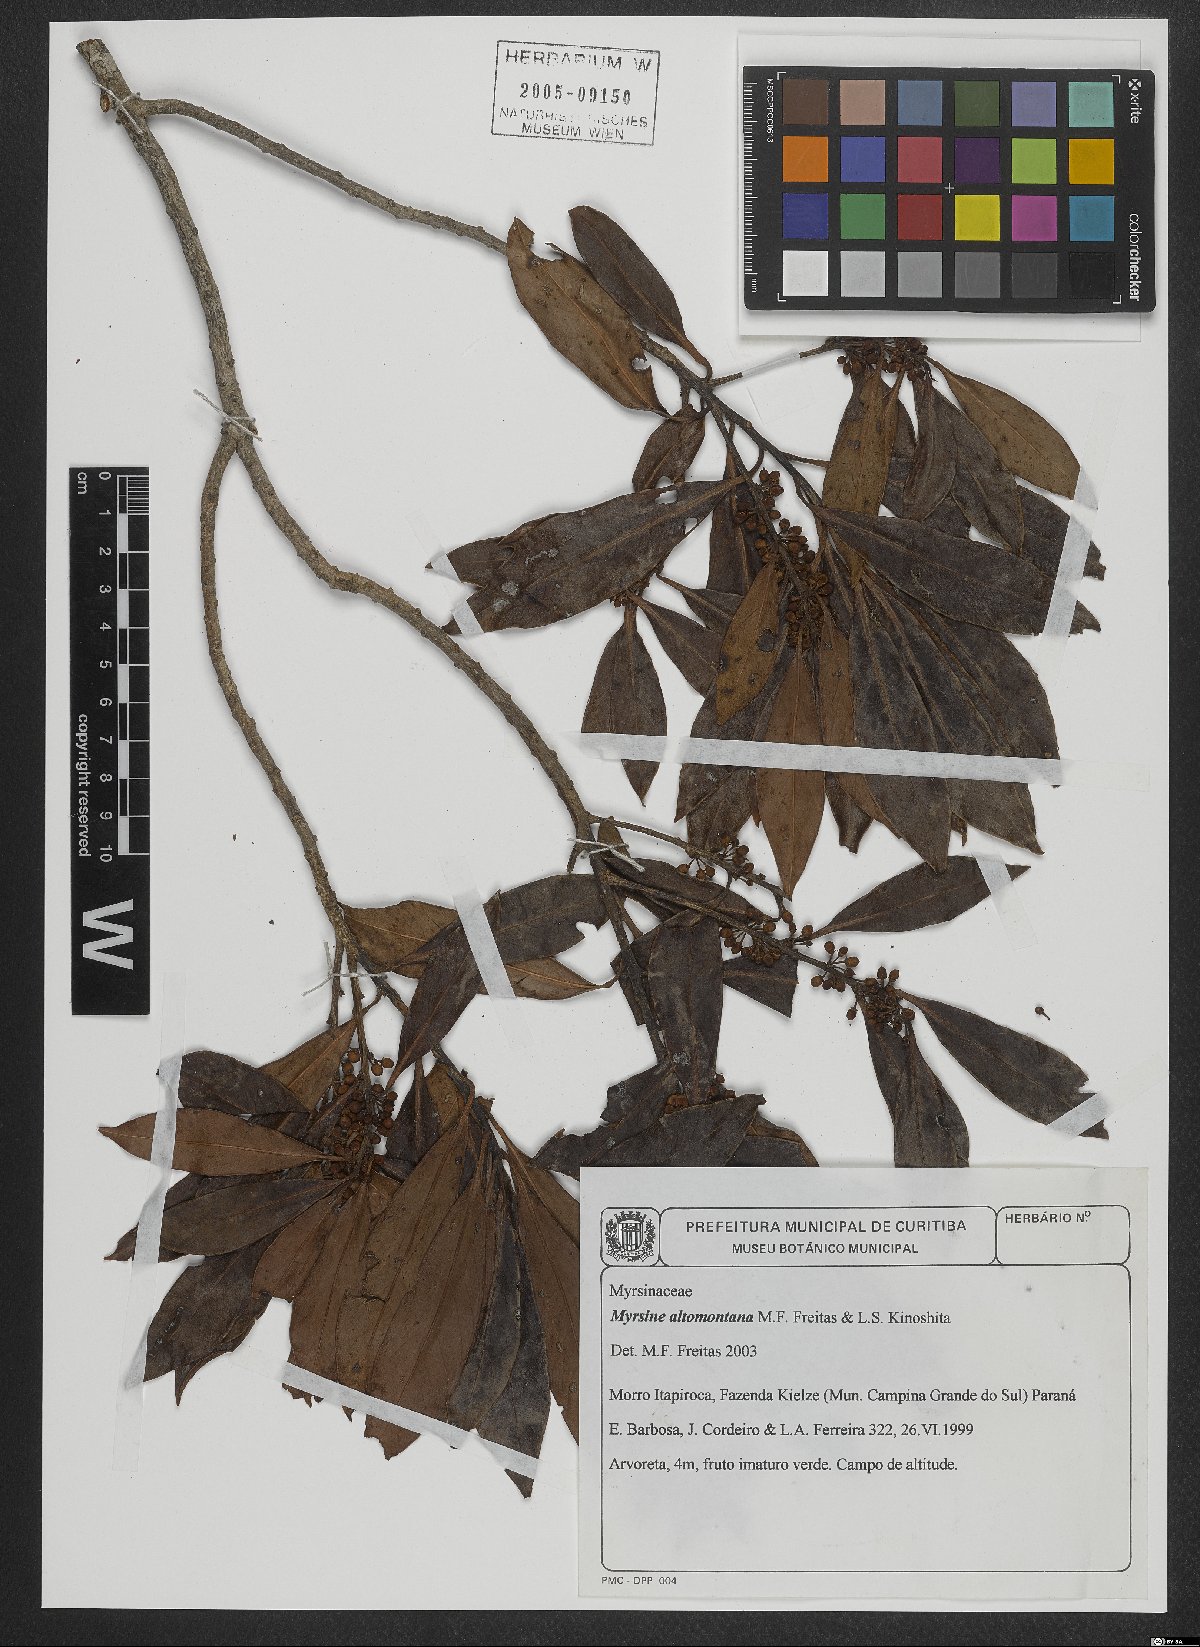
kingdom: Plantae
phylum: Tracheophyta
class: Magnoliopsida
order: Ericales
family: Primulaceae
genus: Myrsine
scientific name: Myrsine altomontana
